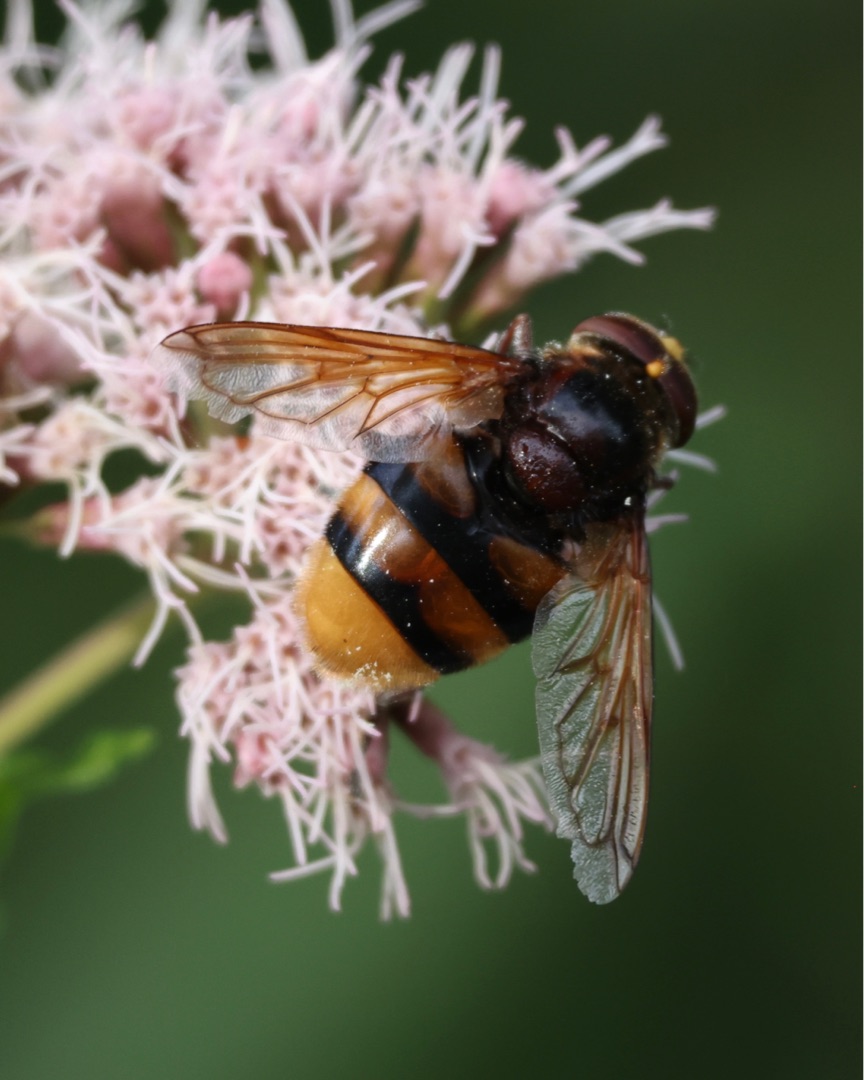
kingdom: Animalia
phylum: Arthropoda
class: Insecta
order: Diptera
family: Syrphidae
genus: Volucella
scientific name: Volucella zonaria
